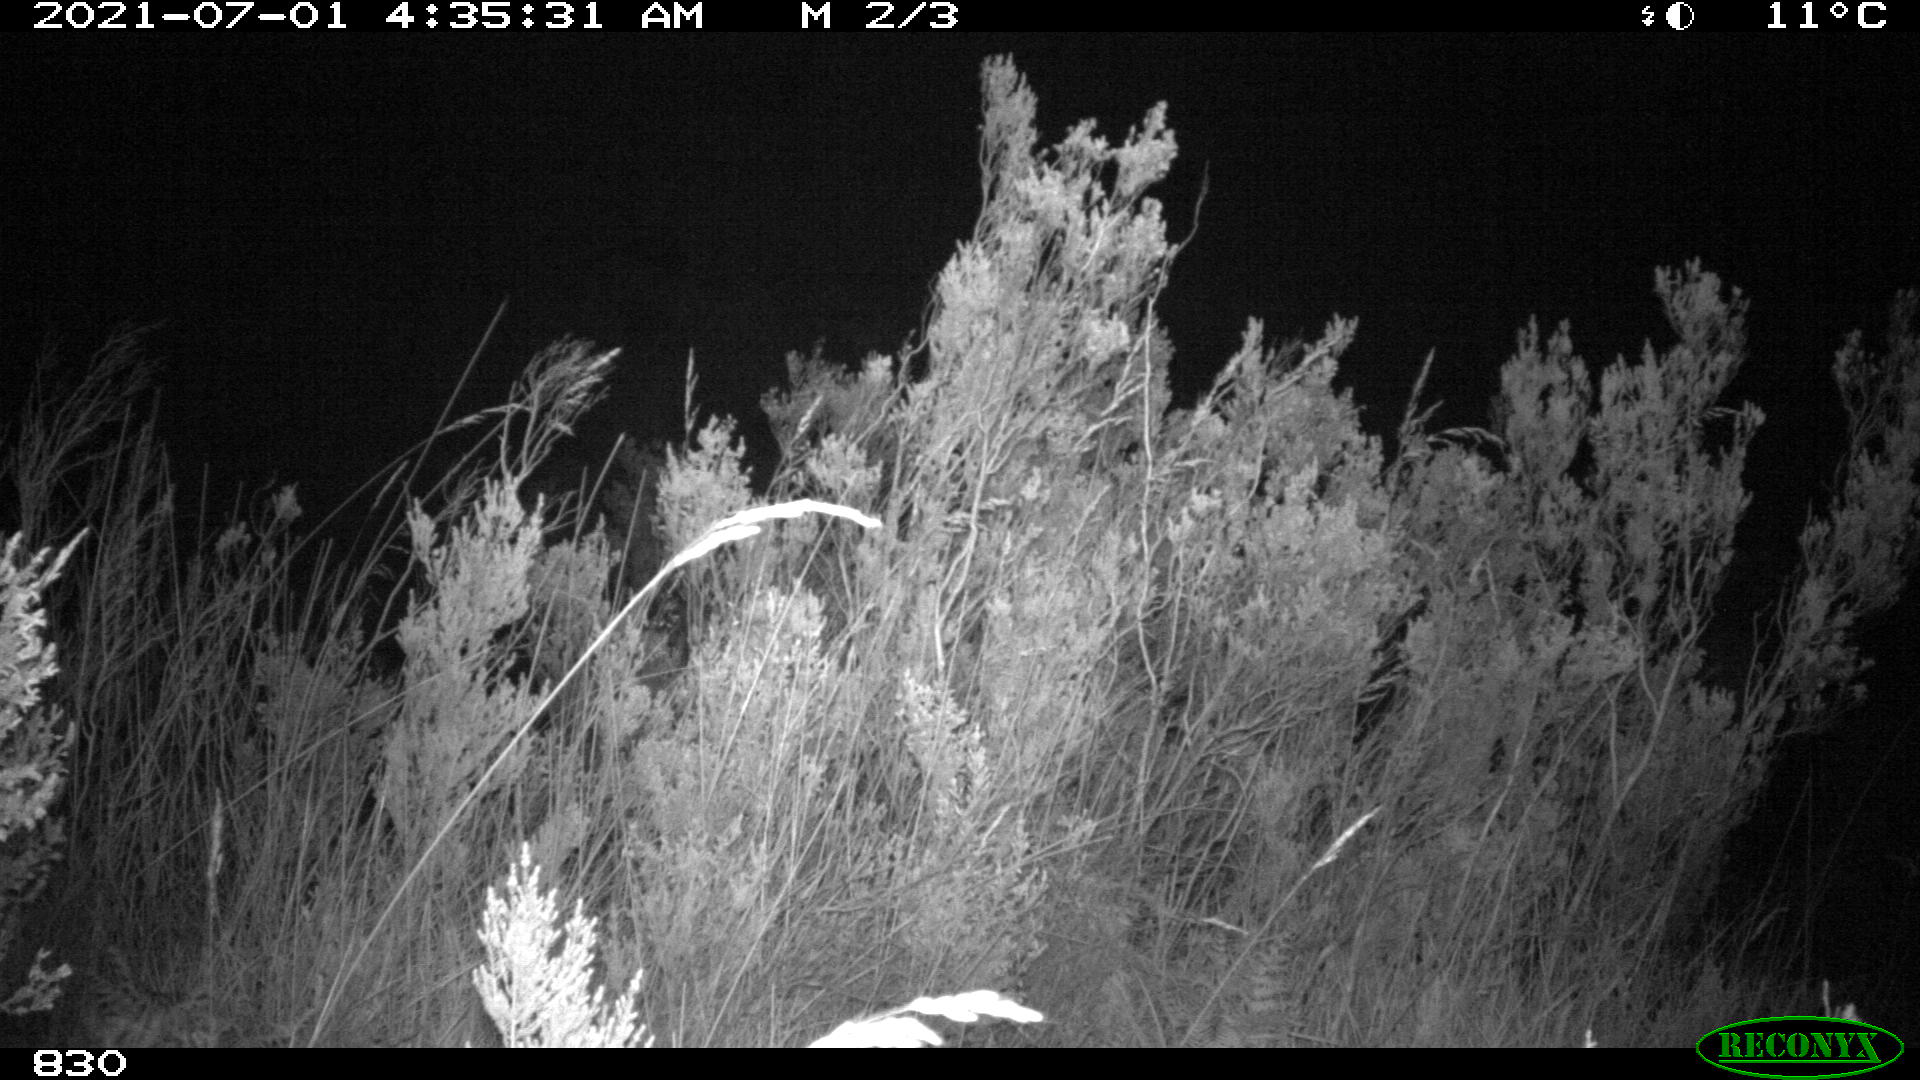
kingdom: Animalia
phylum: Chordata
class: Mammalia
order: Perissodactyla
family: Equidae
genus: Equus
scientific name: Equus caballus
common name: Horse
